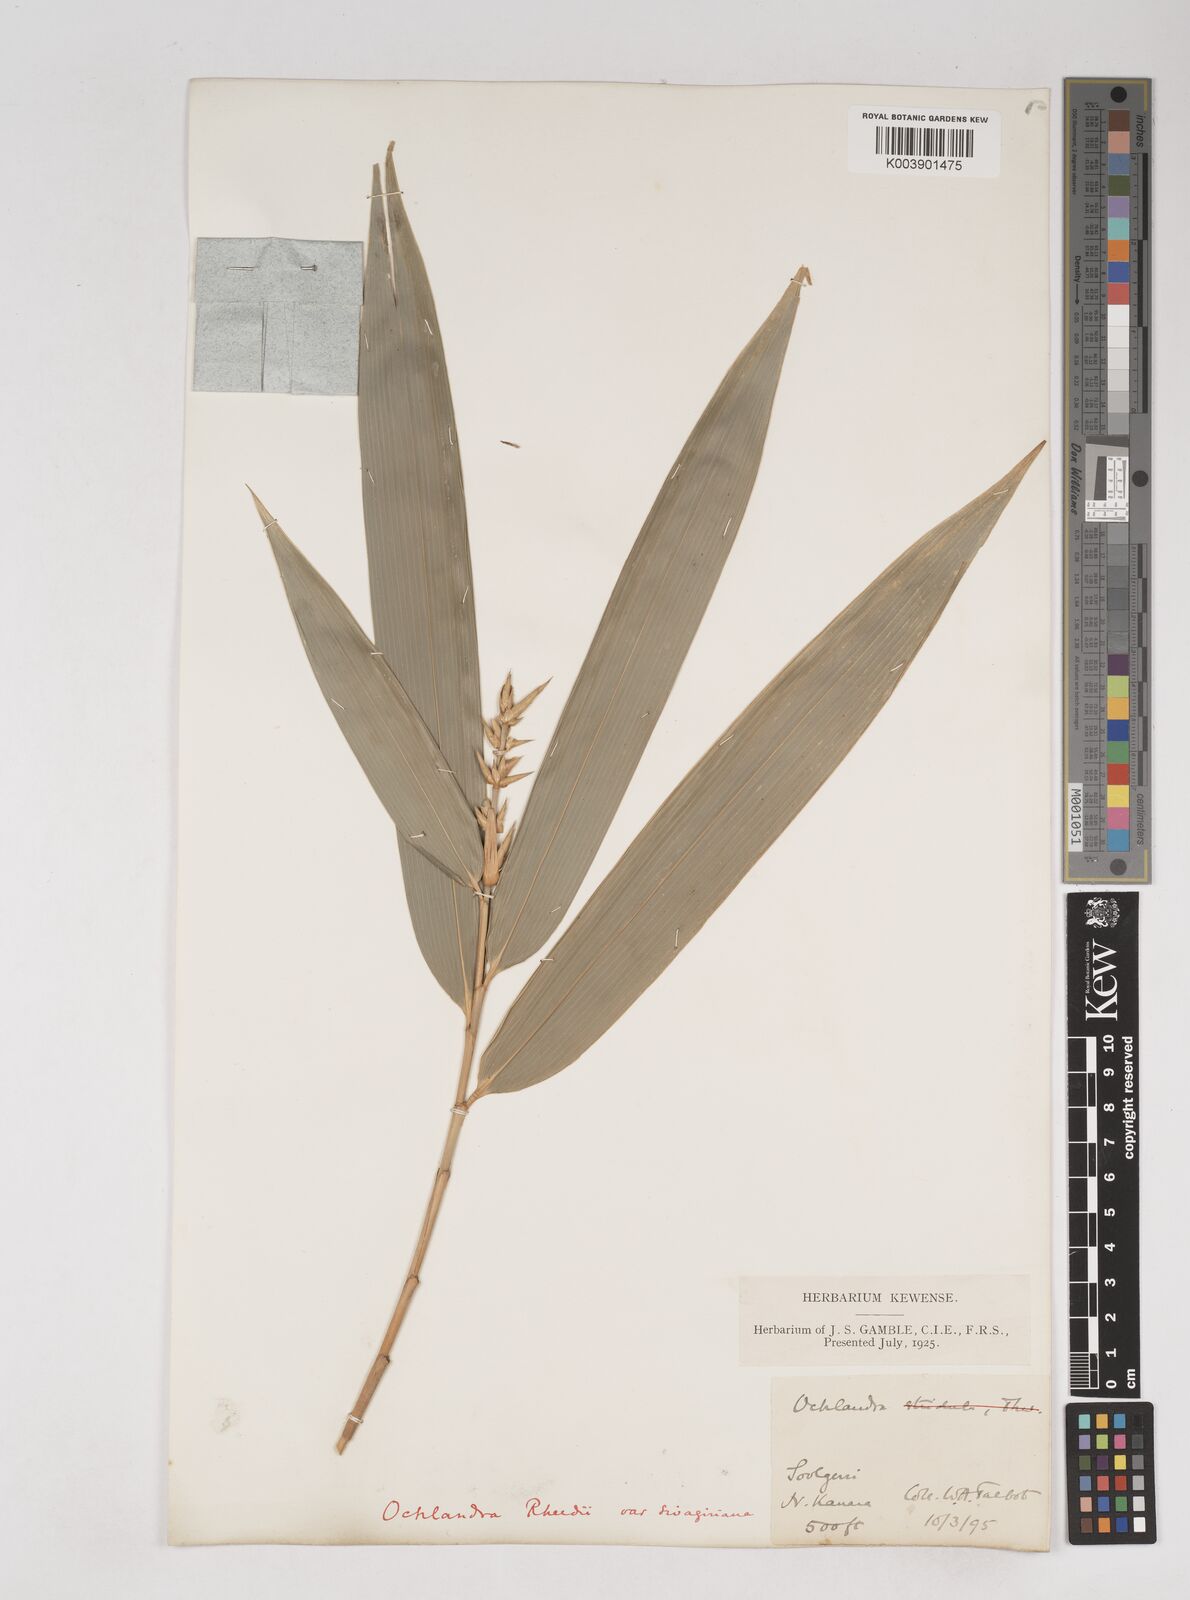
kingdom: Plantae
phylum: Tracheophyta
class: Liliopsida
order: Poales
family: Poaceae
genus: Ochlandra
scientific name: Ochlandra scriptoria
